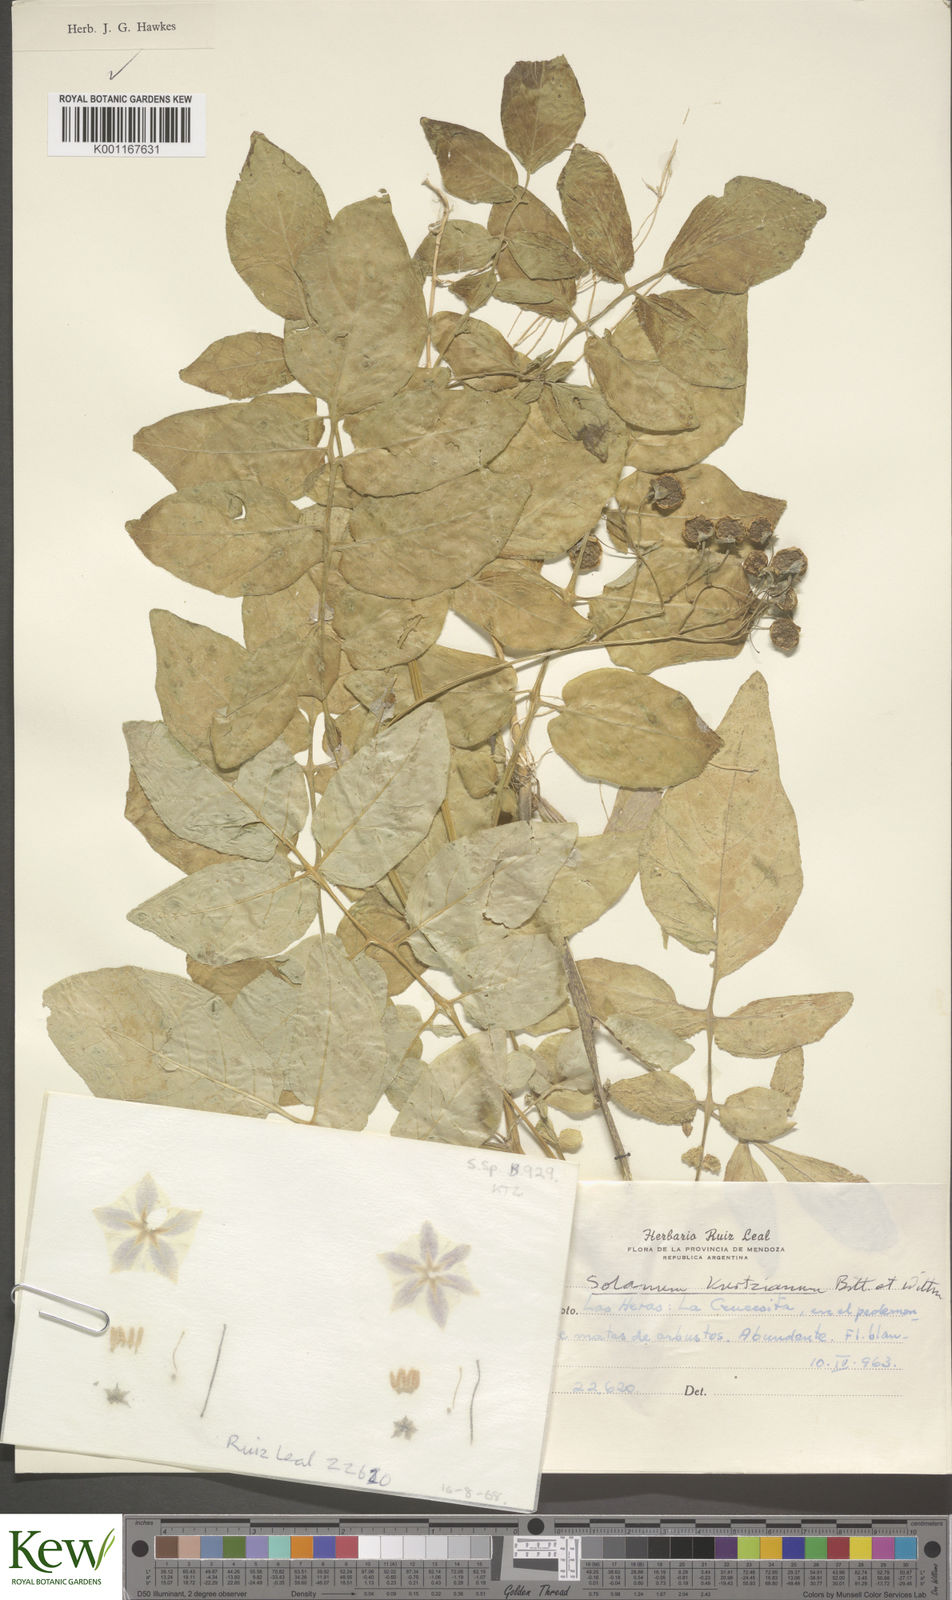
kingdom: Plantae
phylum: Tracheophyta
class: Magnoliopsida
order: Solanales
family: Solanaceae
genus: Solanum
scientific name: Solanum kurtzianum
